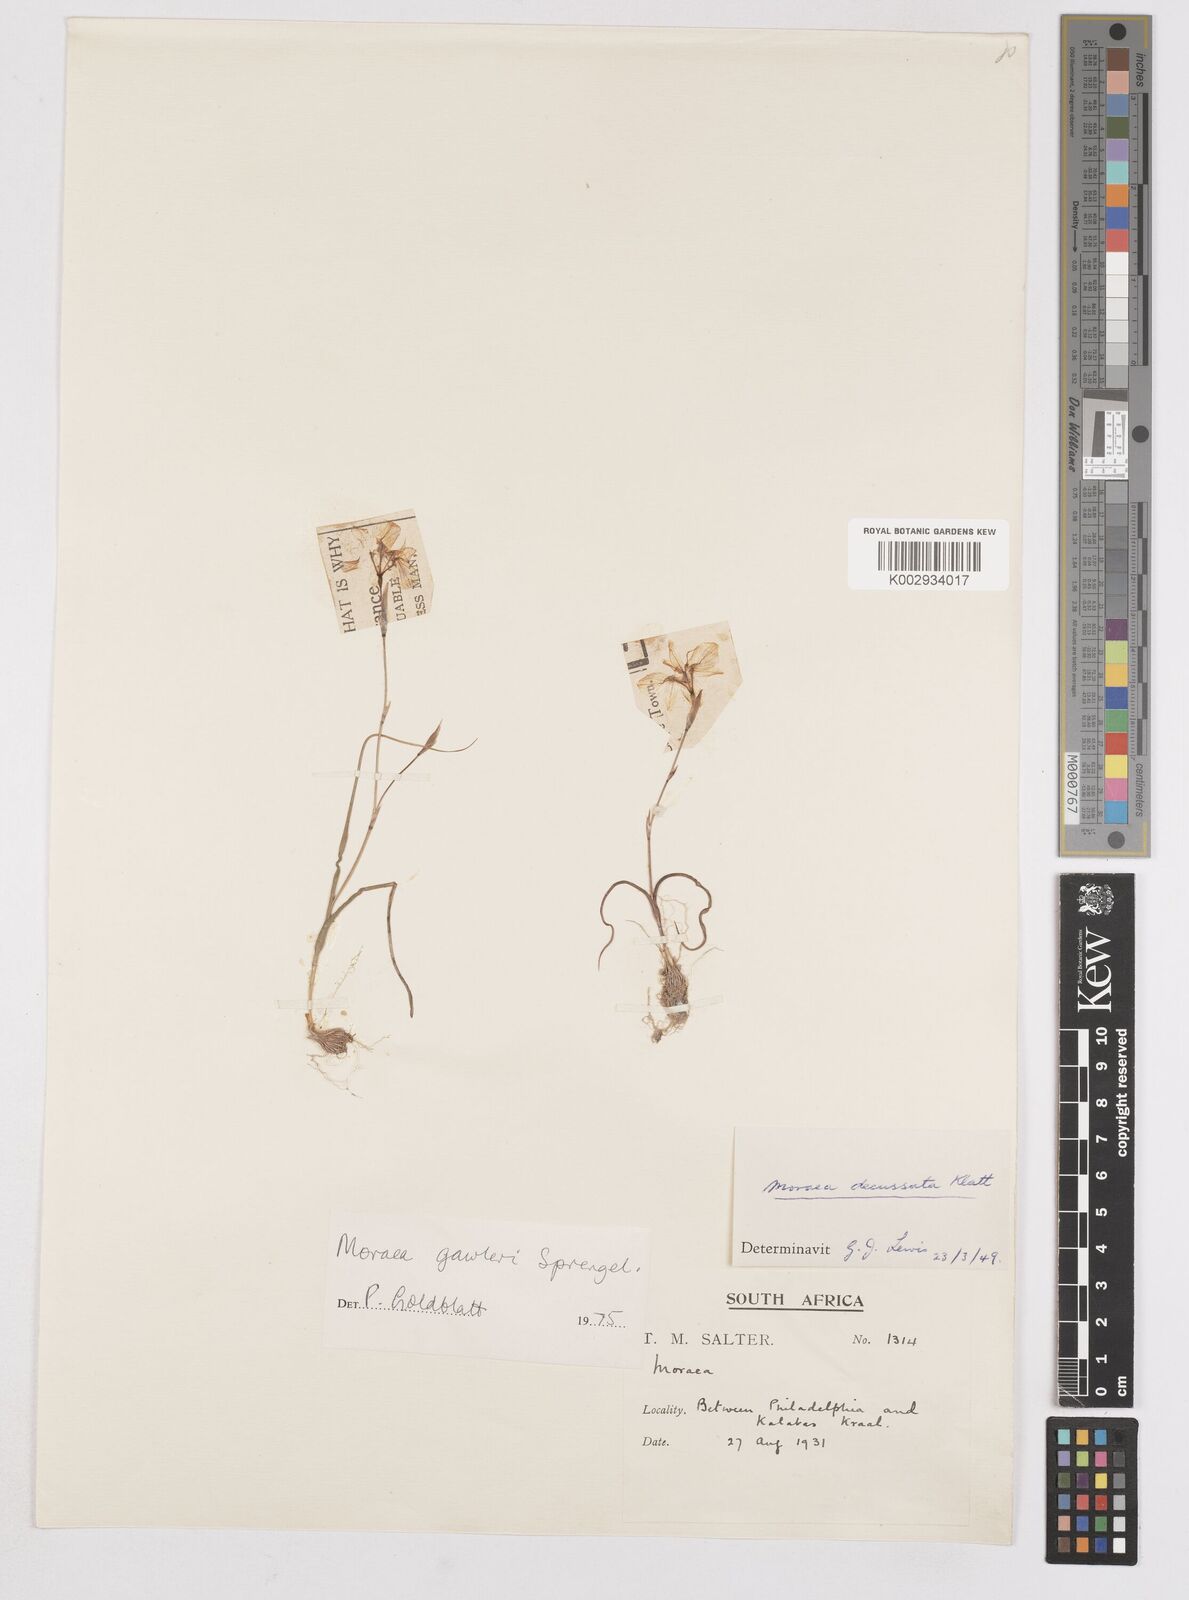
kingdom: Plantae
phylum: Tracheophyta
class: Liliopsida
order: Asparagales
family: Iridaceae
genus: Moraea
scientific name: Moraea gawleri
